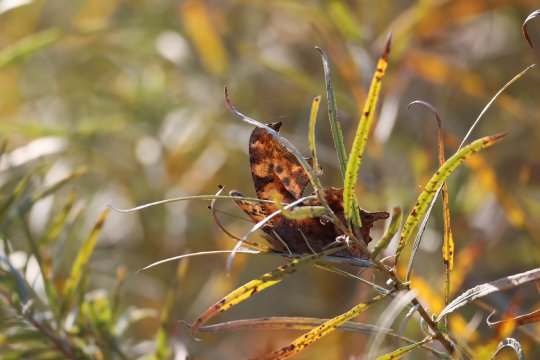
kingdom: Animalia
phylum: Arthropoda
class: Insecta
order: Lepidoptera
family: Nymphalidae
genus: Polygonia
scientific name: Polygonia interrogationis
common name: Question Mark
